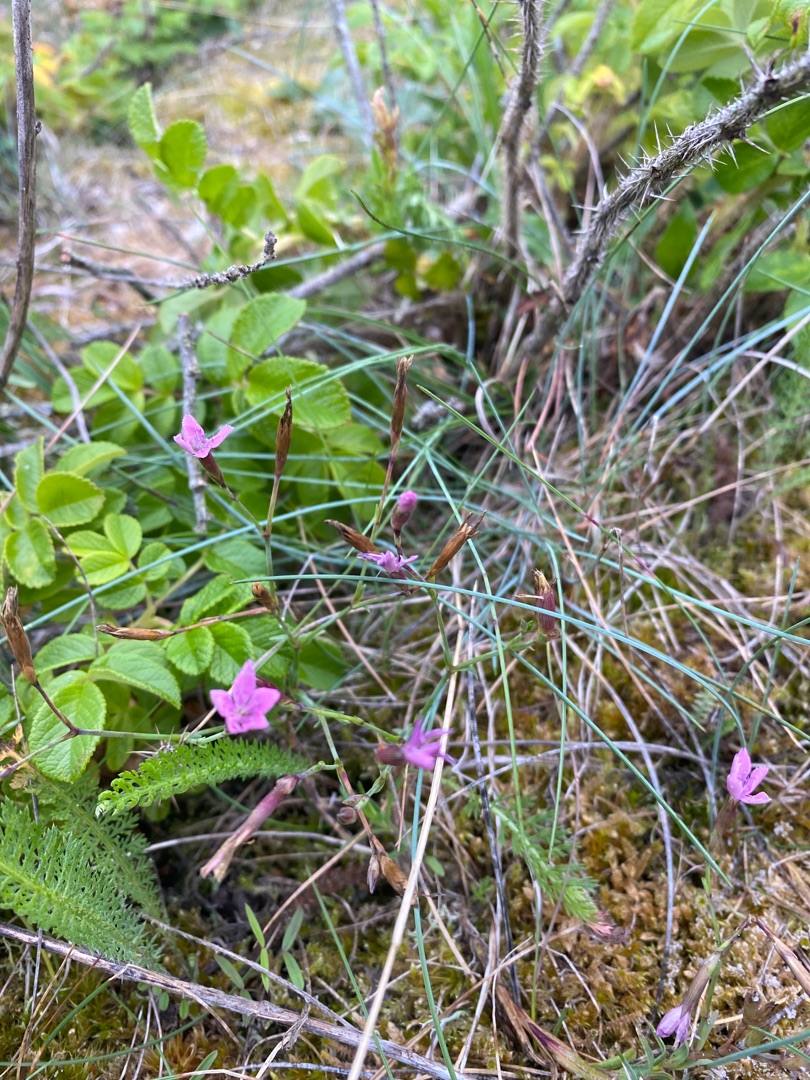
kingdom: Plantae
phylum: Tracheophyta
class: Magnoliopsida
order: Caryophyllales
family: Caryophyllaceae
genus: Dianthus
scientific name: Dianthus deltoides
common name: Bakke-nellike
